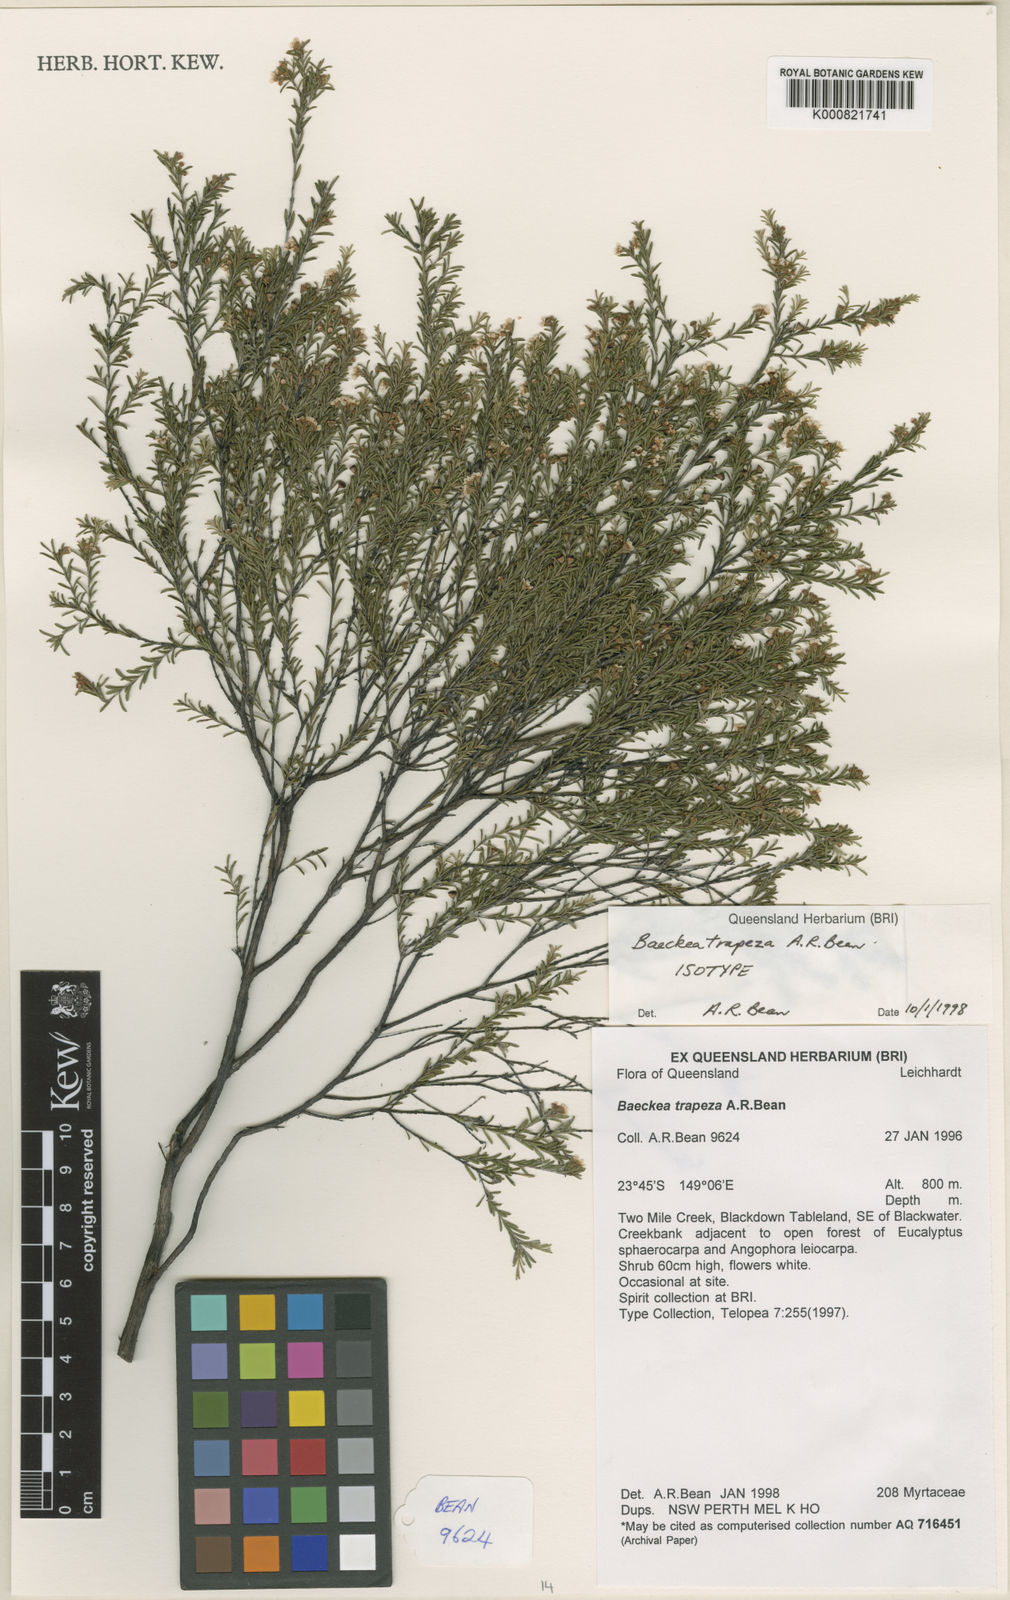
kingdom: Plantae
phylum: Tracheophyta
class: Magnoliopsida
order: Myrtales
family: Myrtaceae
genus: Baeckea
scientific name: Baeckea trapeza
